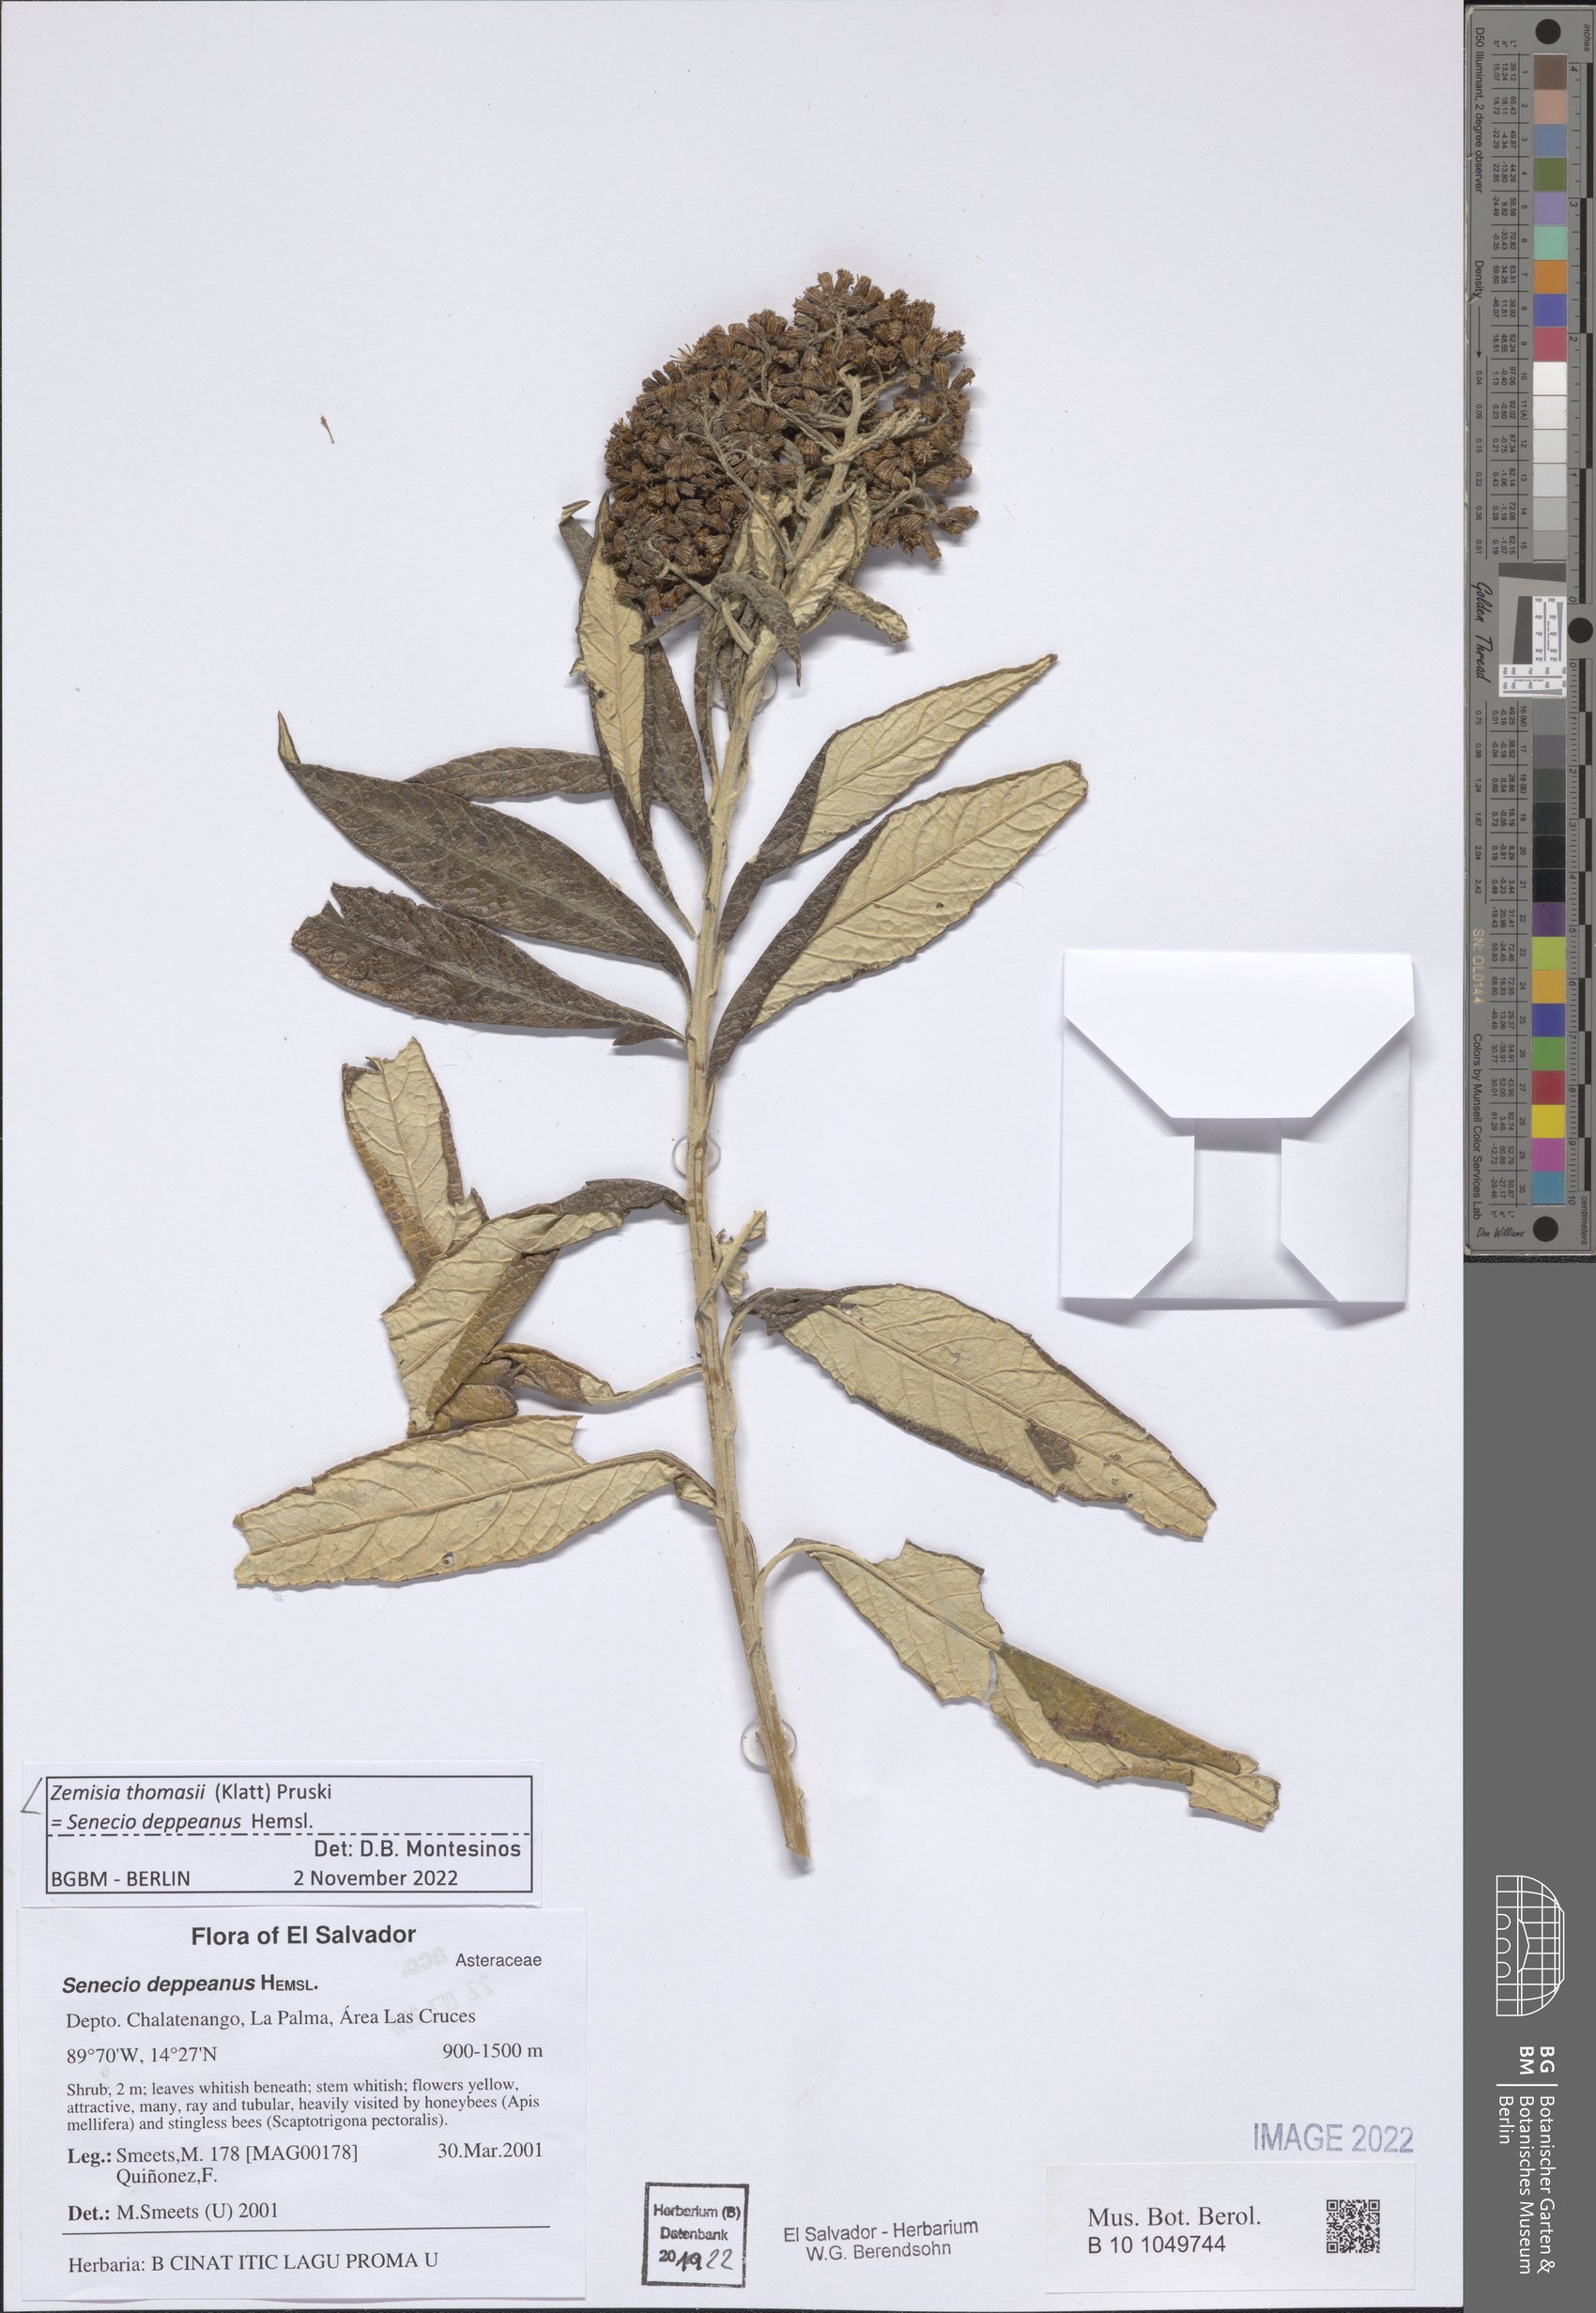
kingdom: Plantae
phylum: Tracheophyta
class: Magnoliopsida
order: Asterales
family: Asteraceae
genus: Zemisia
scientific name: Zemisia thomasii
